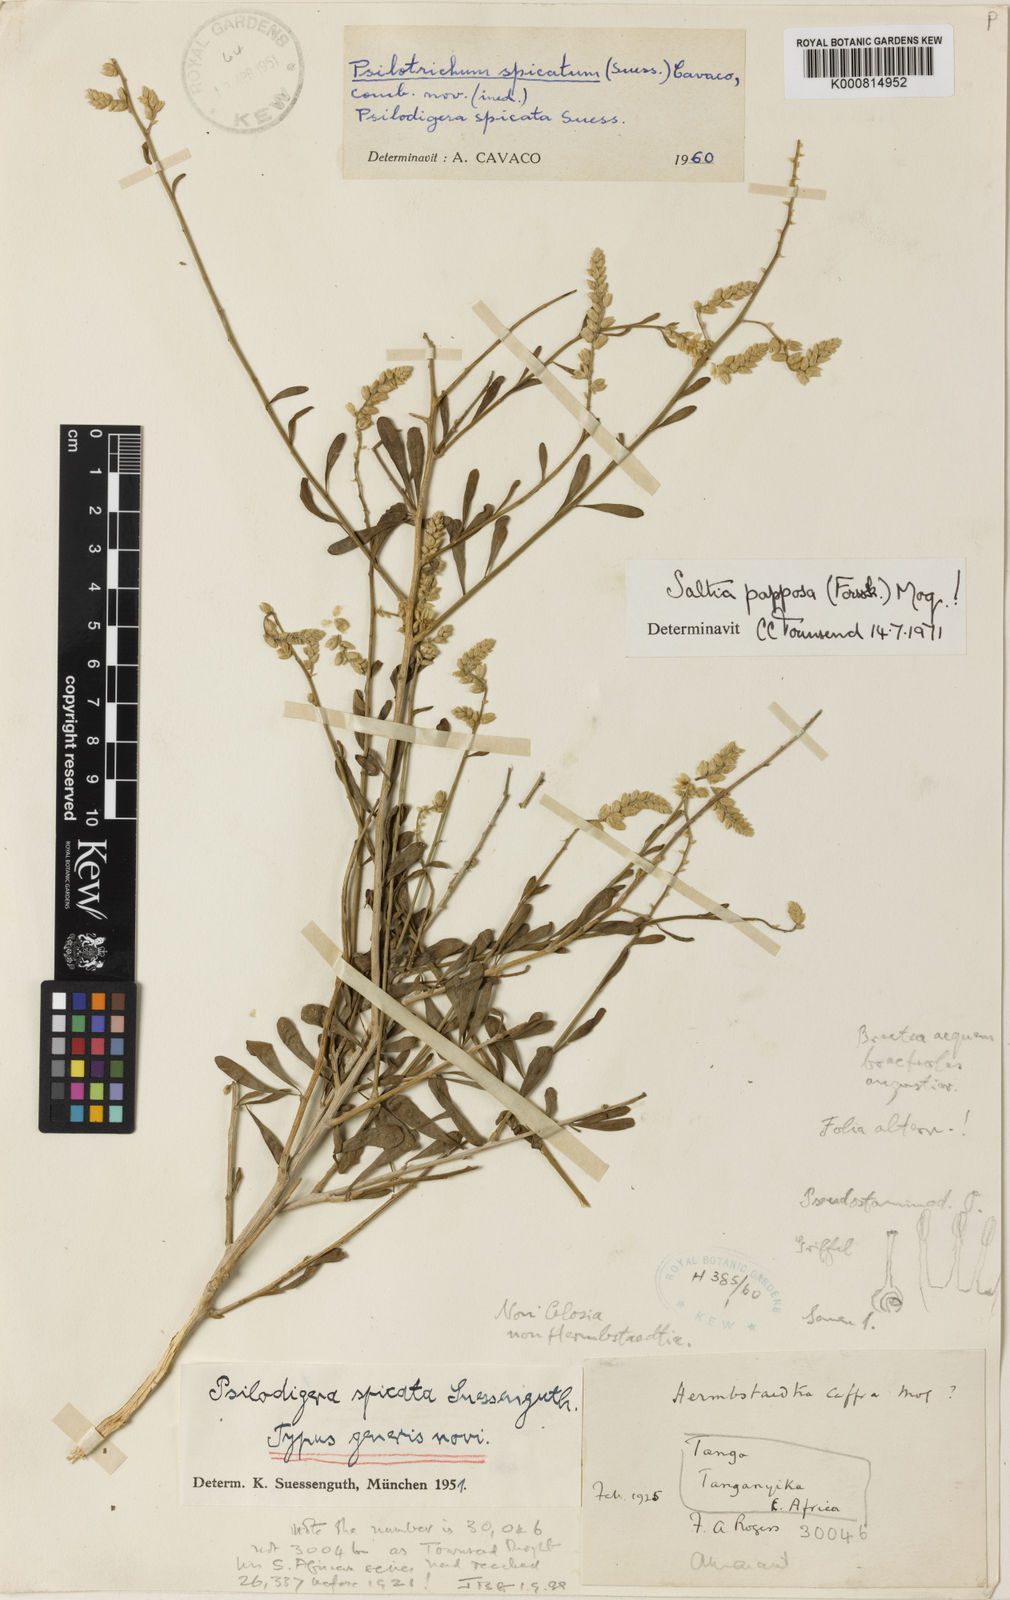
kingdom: Plantae
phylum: Tracheophyta
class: Magnoliopsida
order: Caryophyllales
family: Amaranthaceae
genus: Saltia
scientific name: Saltia papposa
